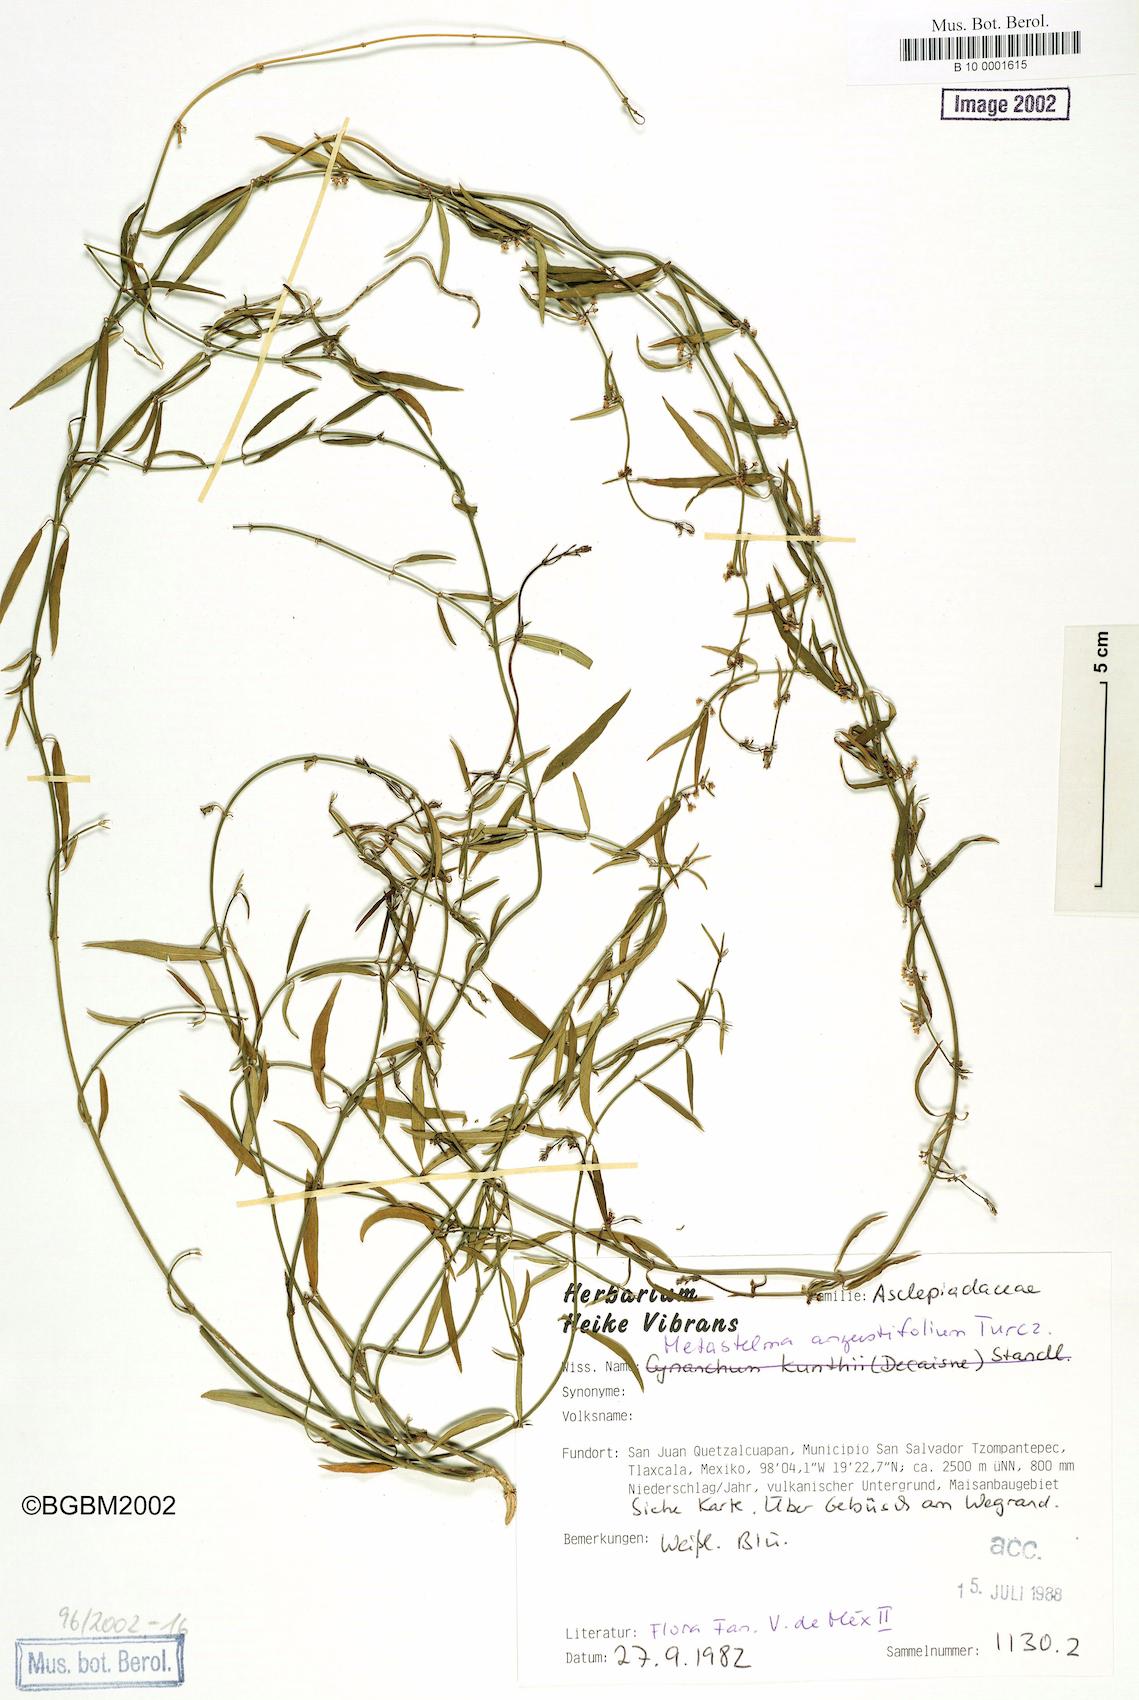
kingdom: Plantae
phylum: Tracheophyta
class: Magnoliopsida
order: Gentianales
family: Apocynaceae
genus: Orthosia
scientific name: Orthosia angustifolia
